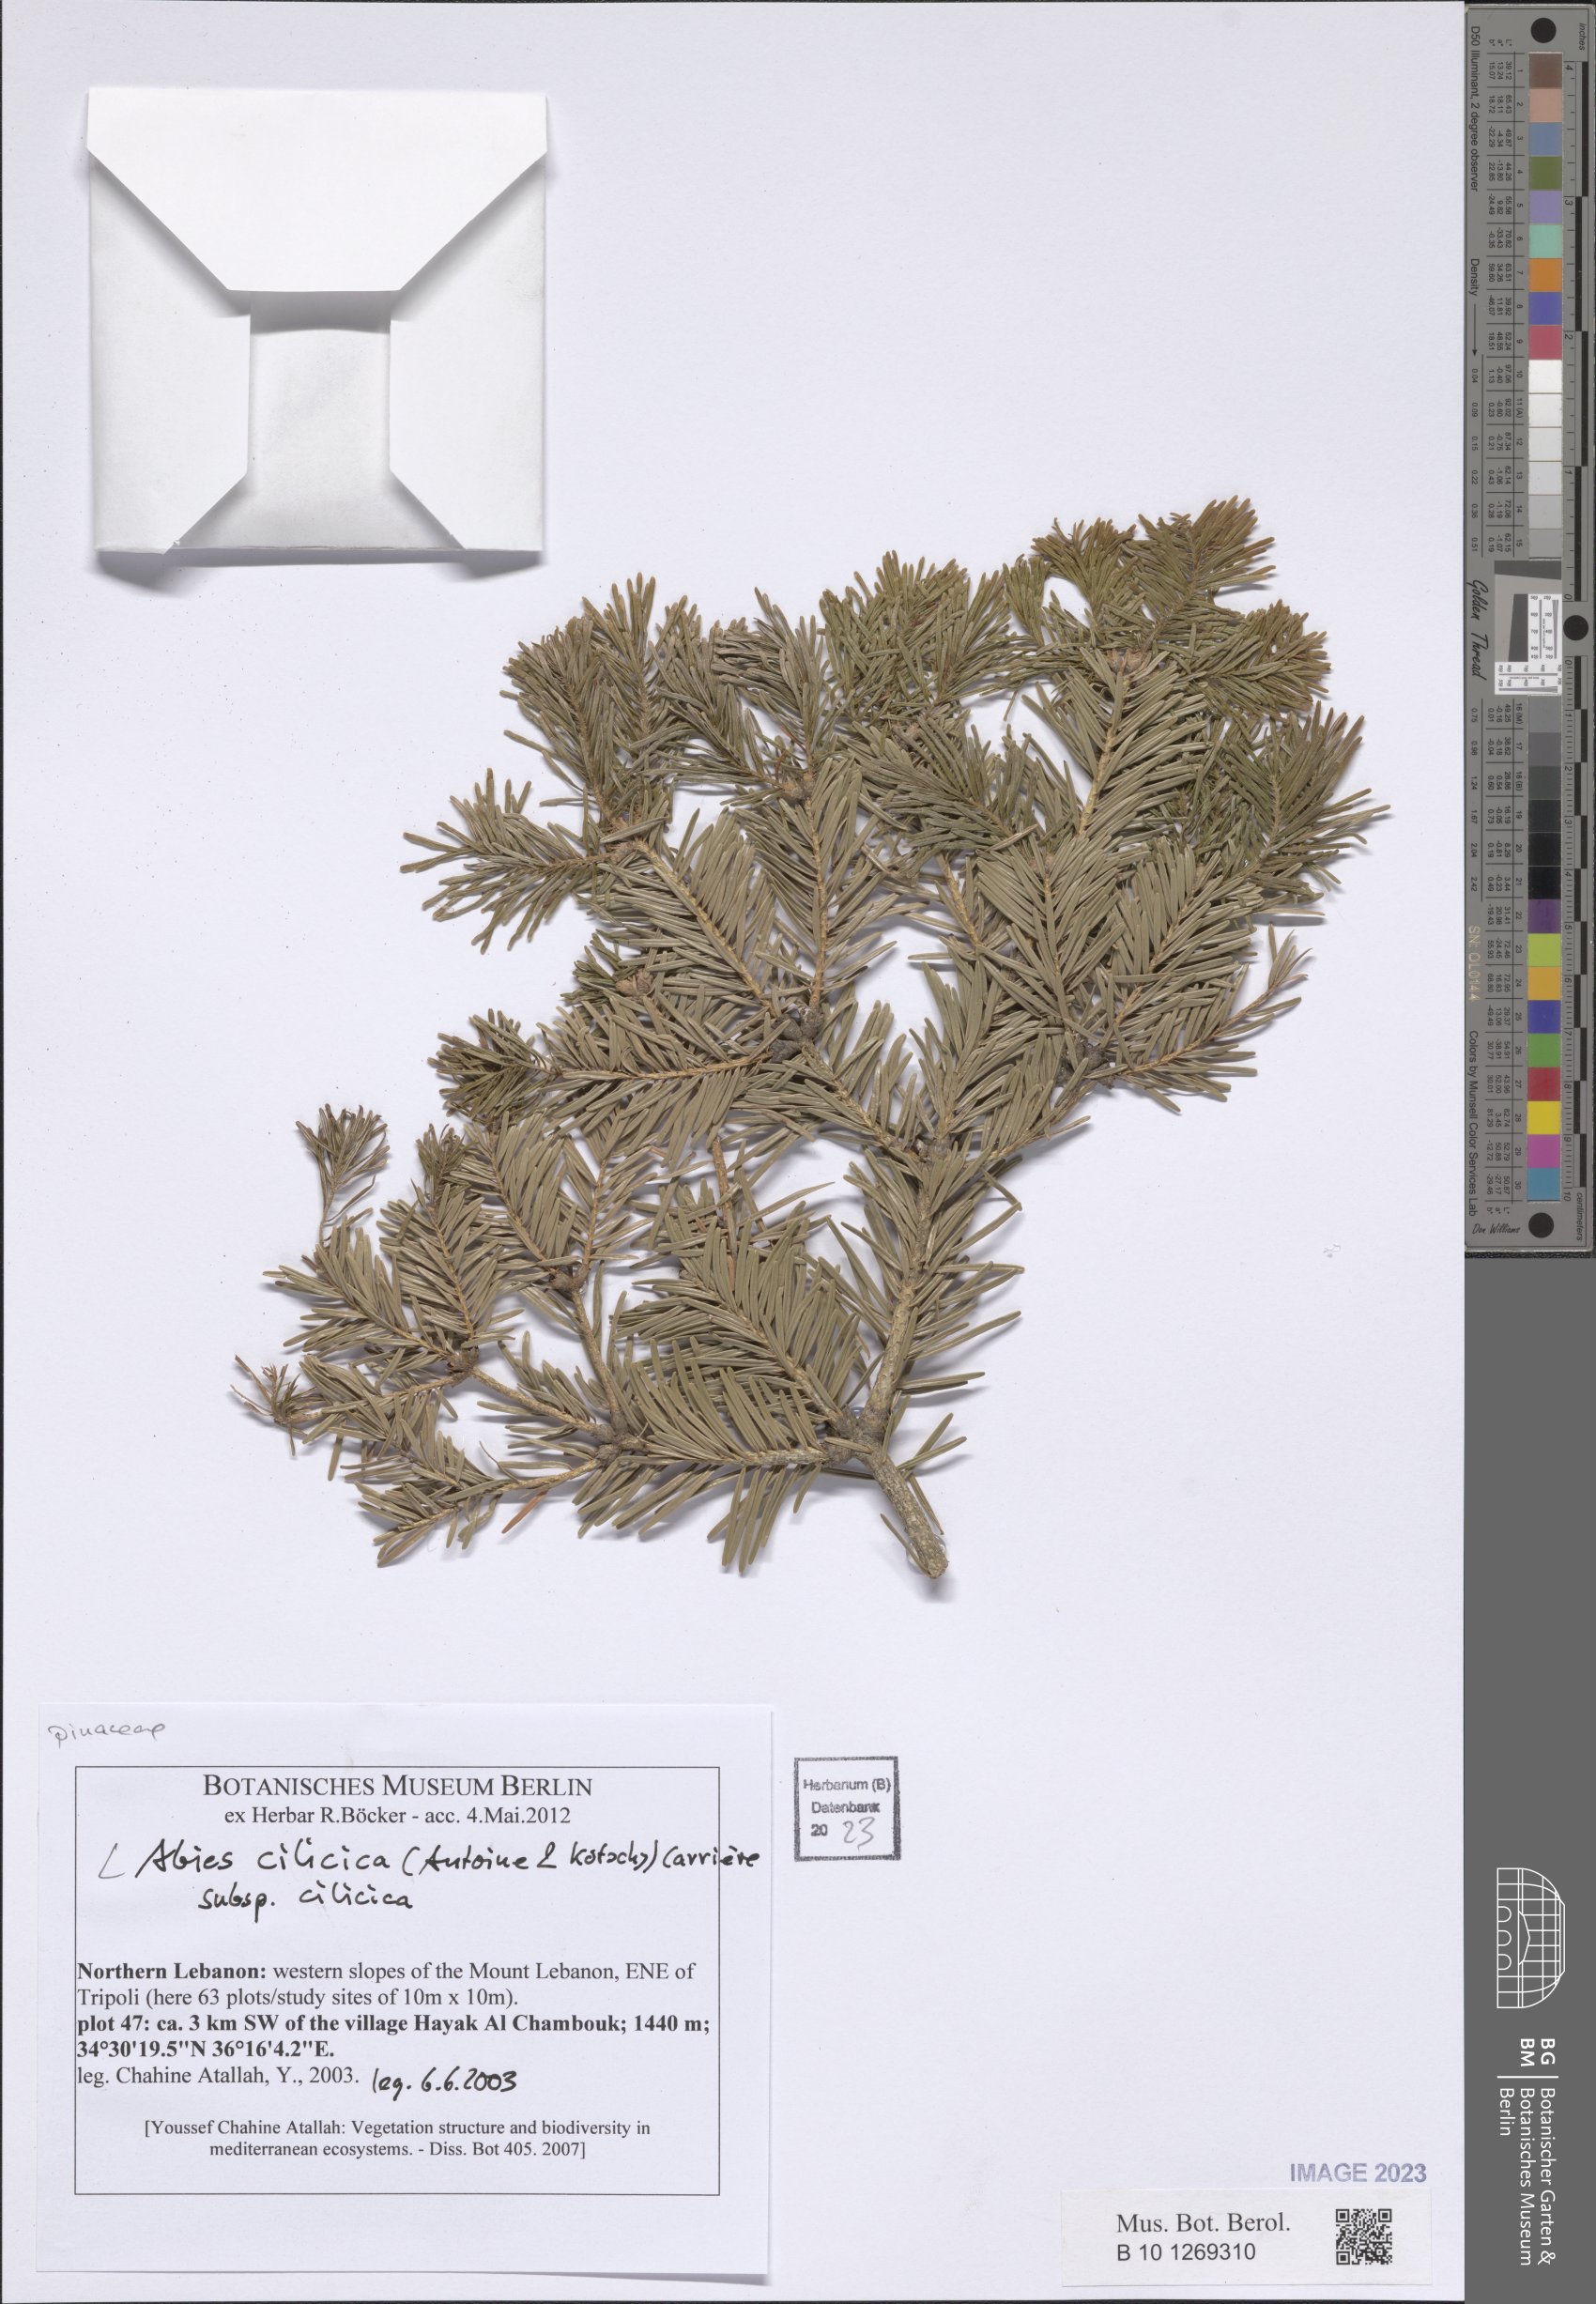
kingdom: Plantae
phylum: Tracheophyta
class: Pinopsida
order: Pinales
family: Pinaceae
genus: Abies
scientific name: Abies cilicica
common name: Cilician fir
